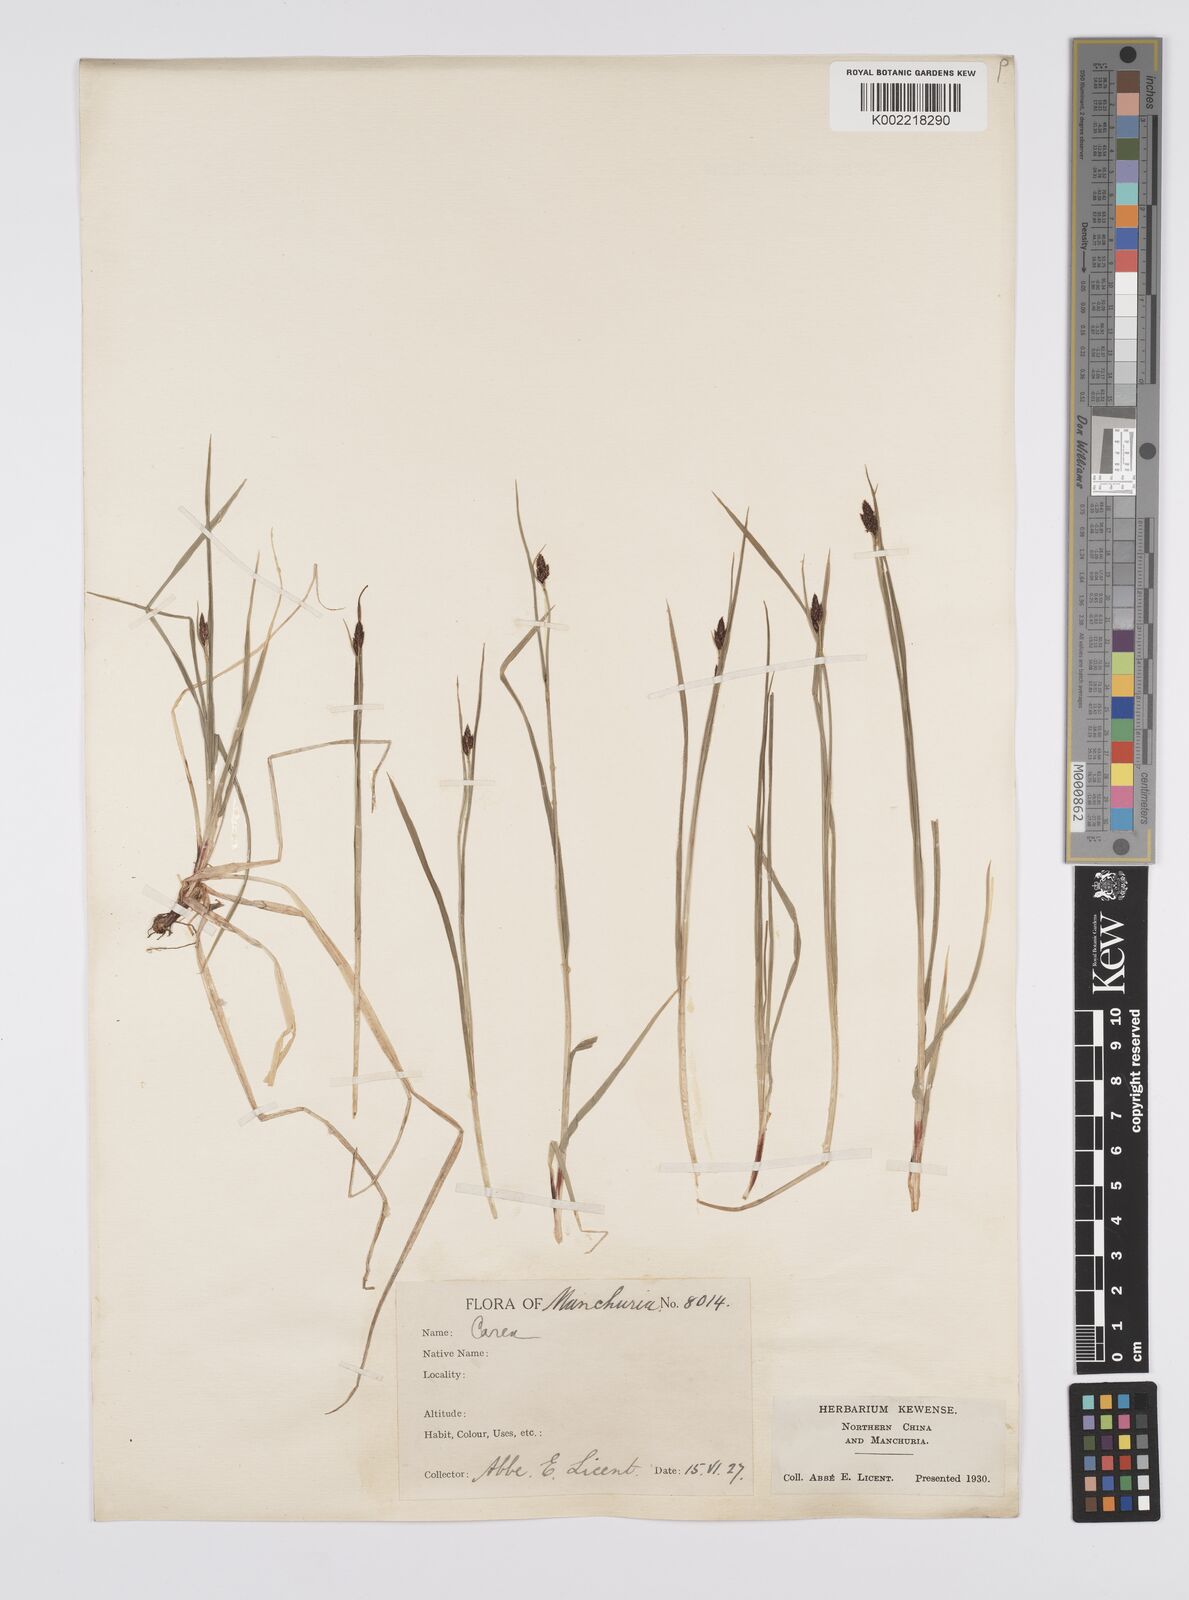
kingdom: Plantae
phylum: Tracheophyta
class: Liliopsida
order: Poales
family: Cyperaceae
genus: Carex
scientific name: Carex norvegica
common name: Close-headed alpine-sedge
